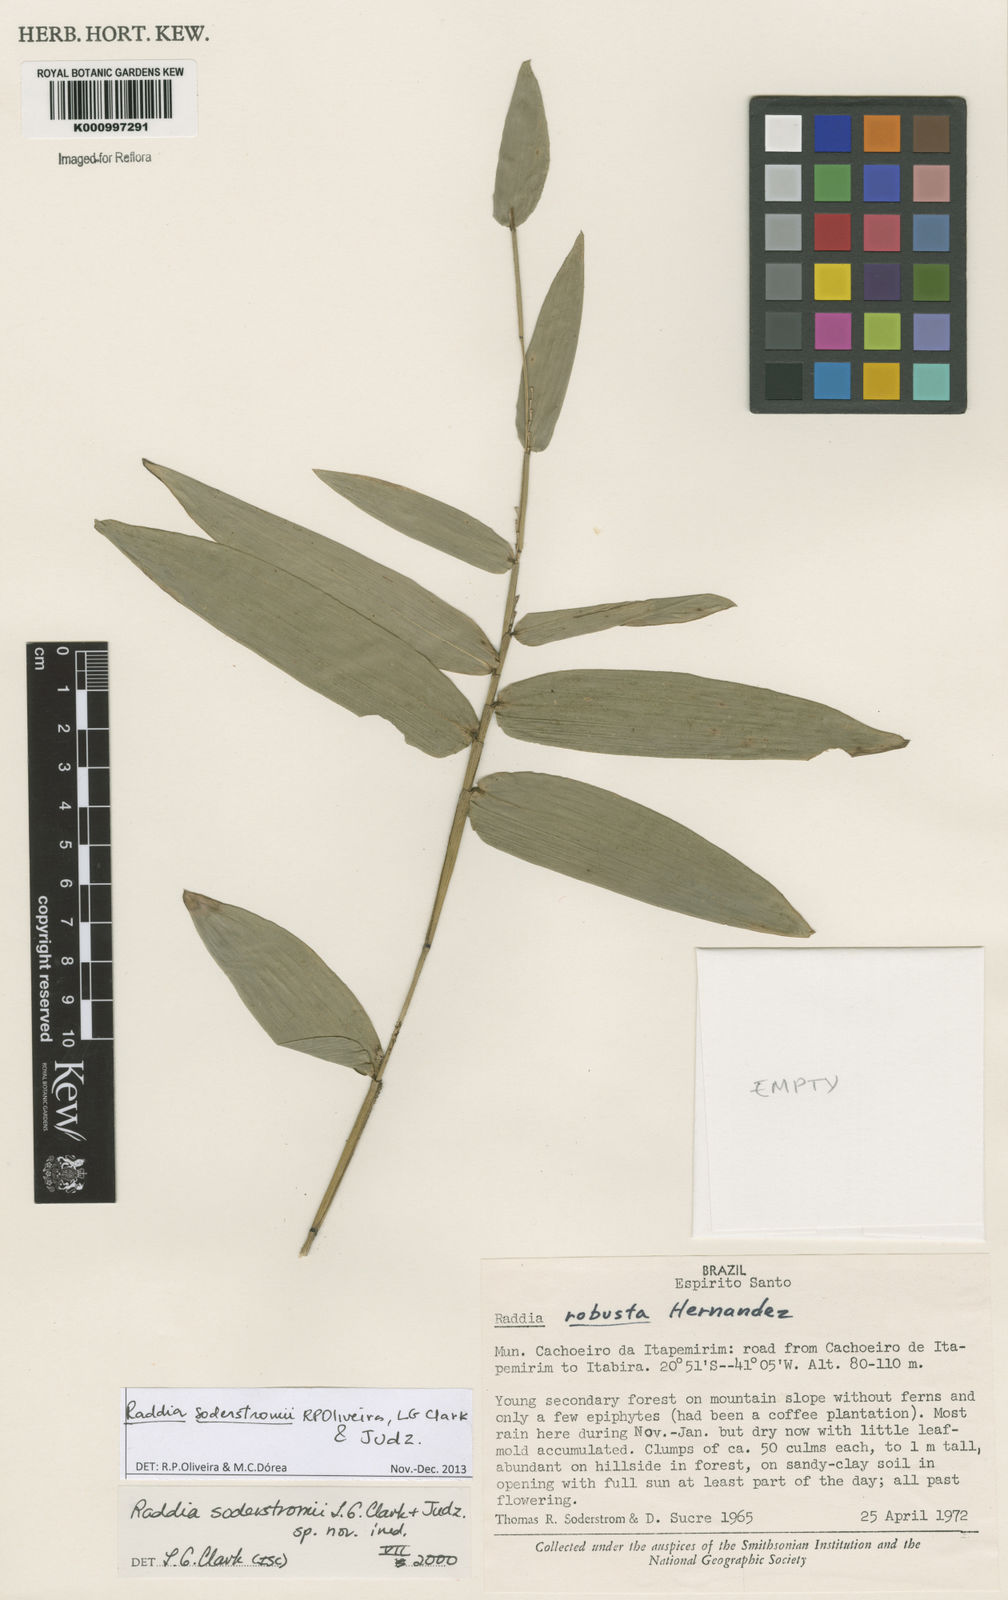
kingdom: Plantae
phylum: Tracheophyta
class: Liliopsida
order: Poales
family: Poaceae
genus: Raddia
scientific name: Raddia soderstromii
